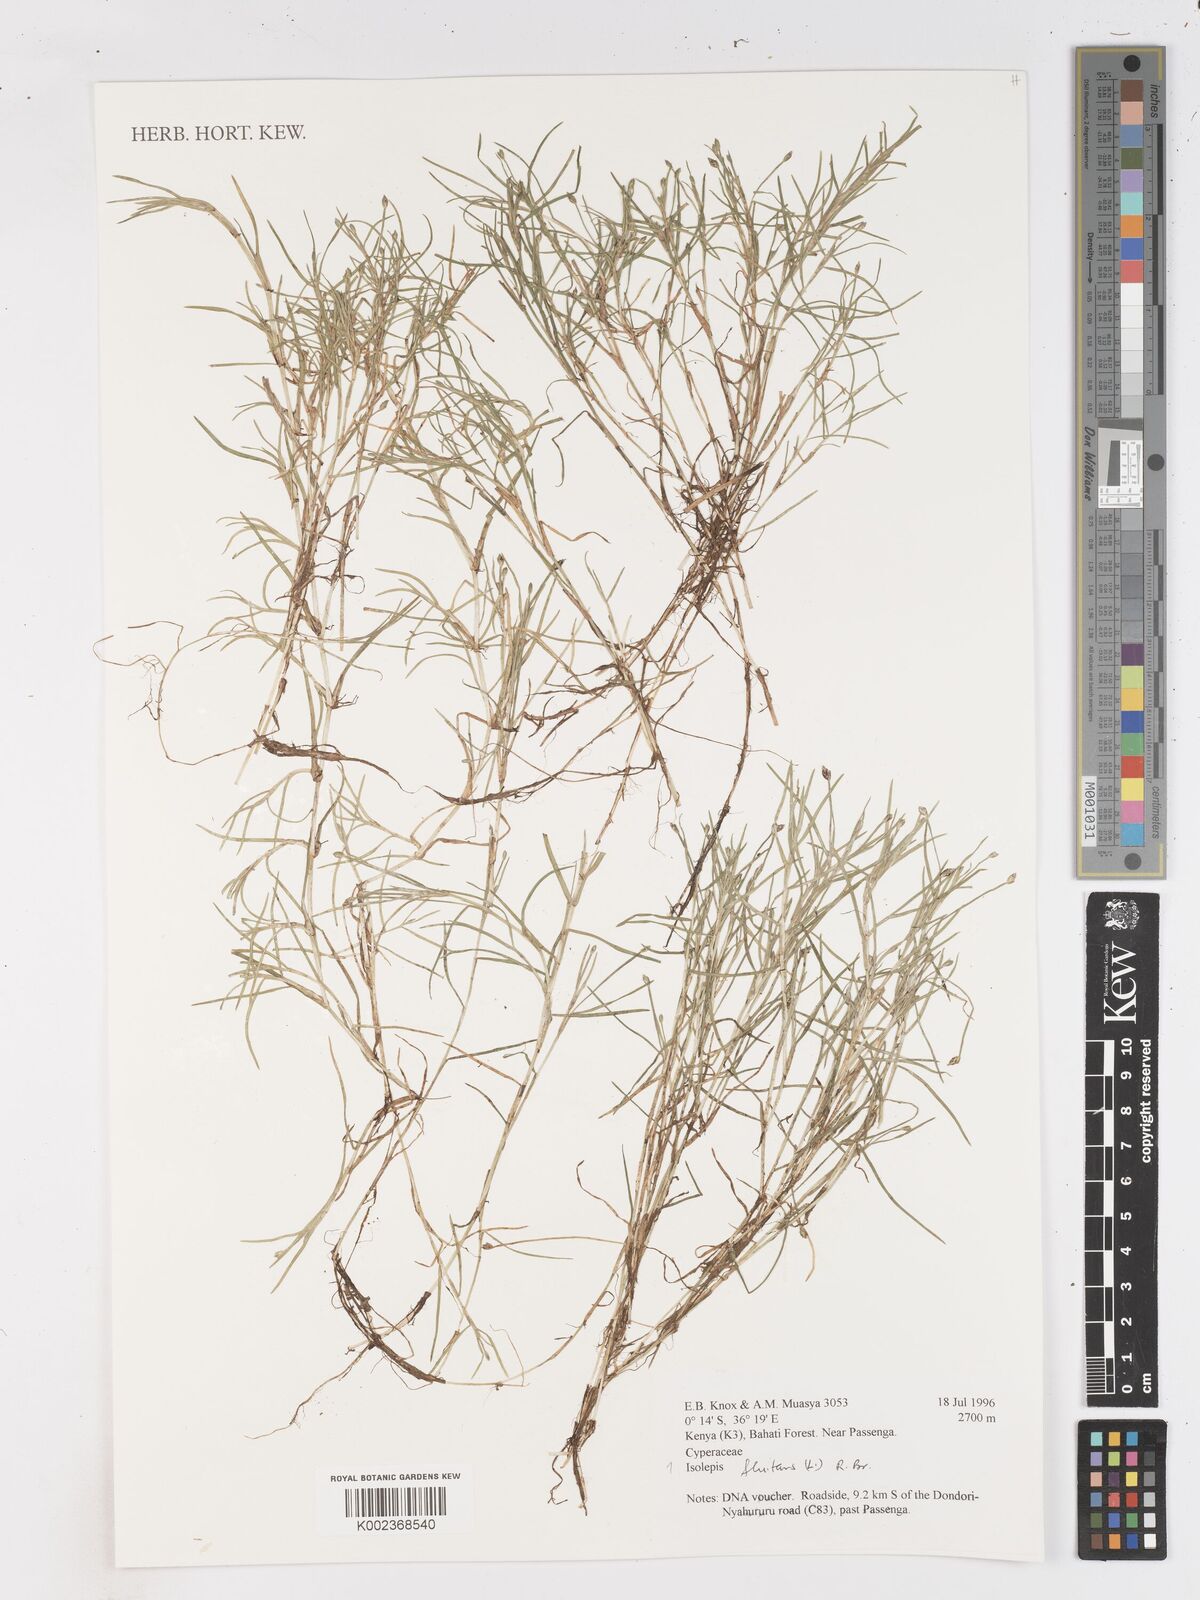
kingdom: Plantae
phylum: Tracheophyta
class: Liliopsida
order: Poales
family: Cyperaceae
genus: Isolepis
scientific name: Isolepis fluitans
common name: Floating club-rush
